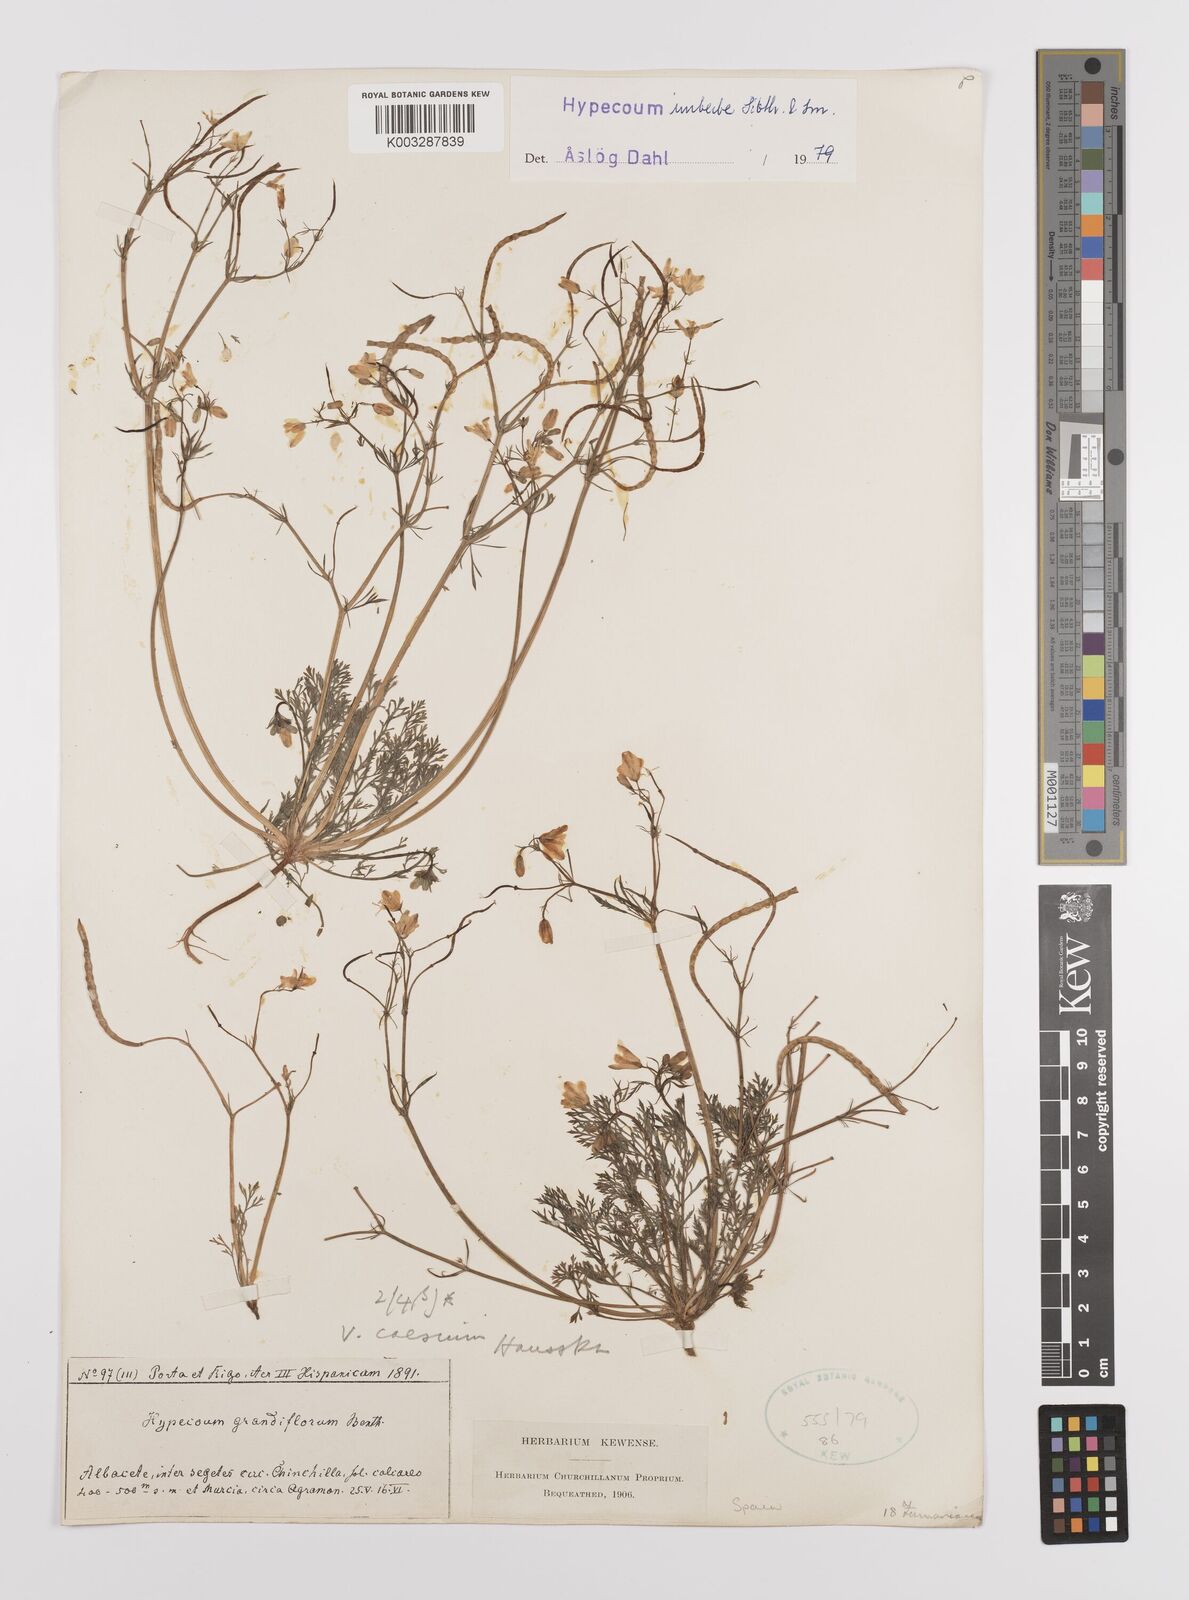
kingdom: Plantae
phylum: Tracheophyta
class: Magnoliopsida
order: Ranunculales
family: Papaveraceae
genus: Hypecoum
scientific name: Hypecoum imberbe
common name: Sicklefruit hypecoum
